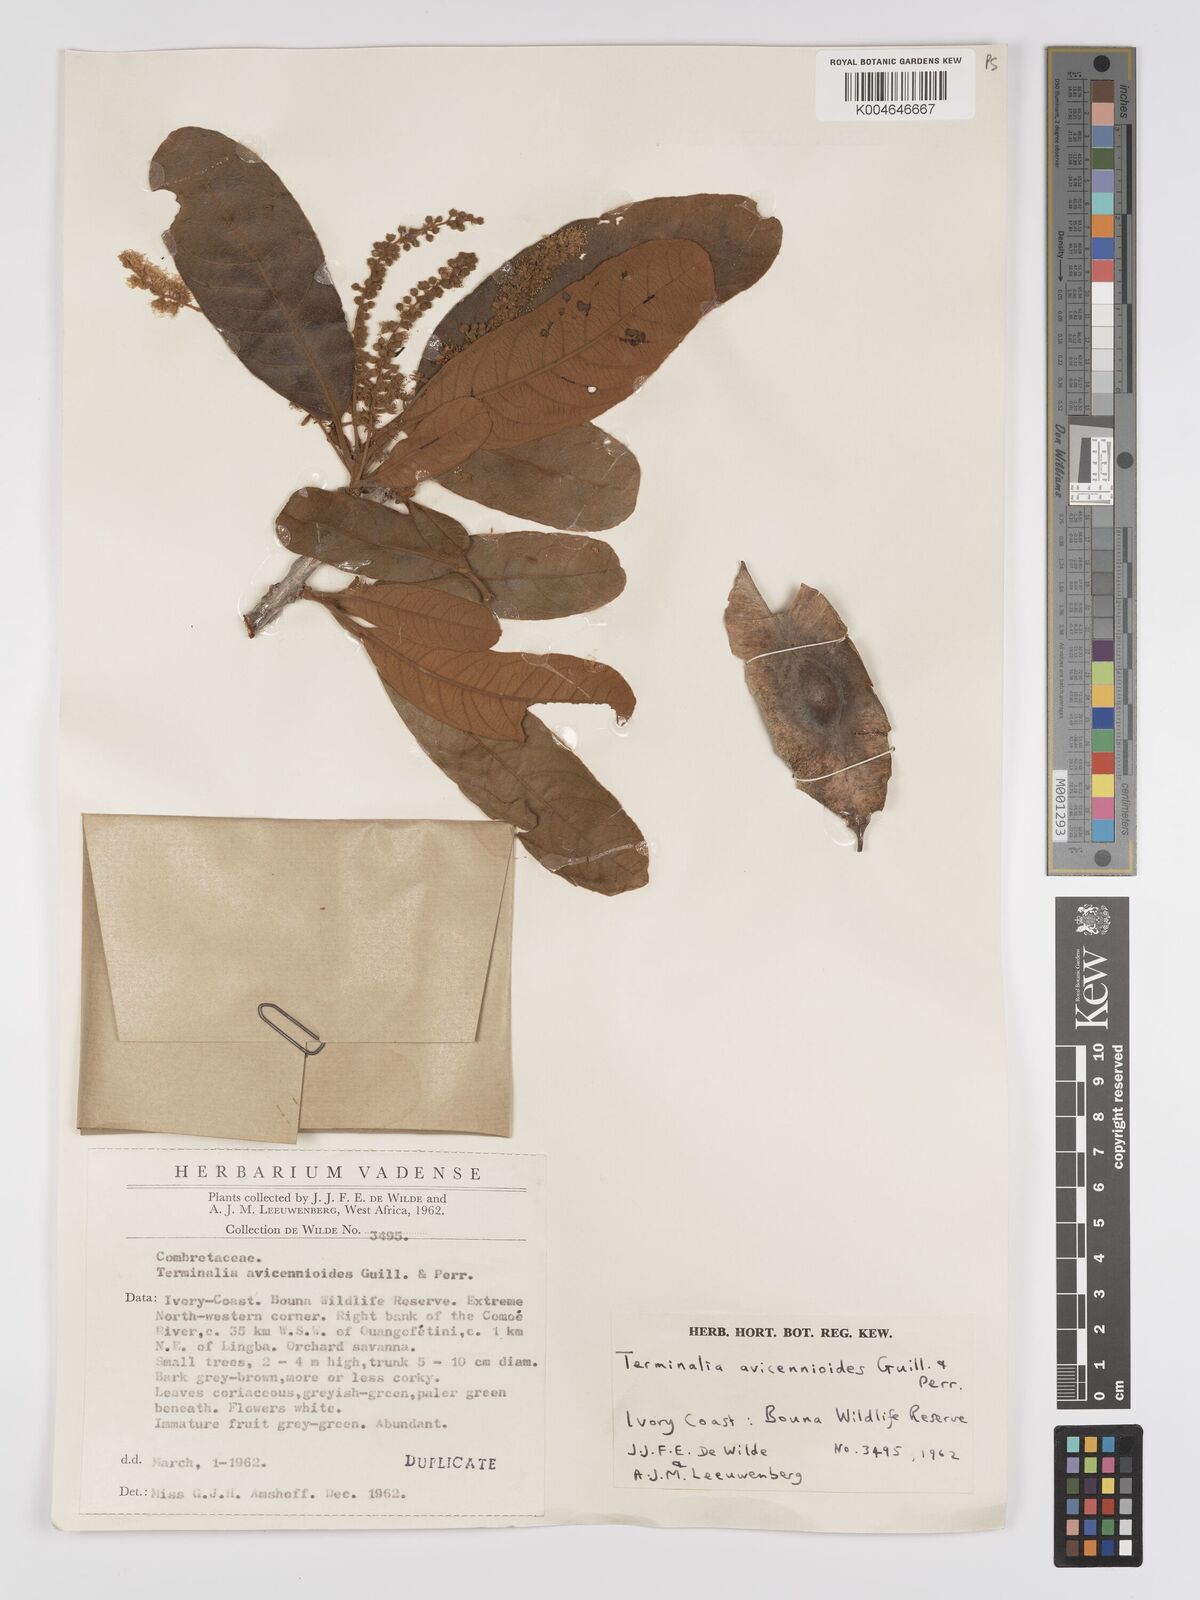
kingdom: Plantae
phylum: Tracheophyta
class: Magnoliopsida
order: Myrtales
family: Combretaceae
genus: Terminalia
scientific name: Terminalia avicennioides
